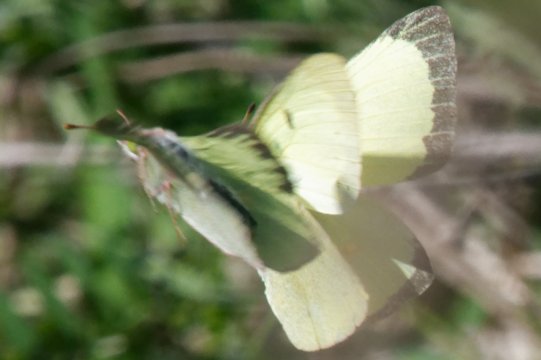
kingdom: Animalia
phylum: Arthropoda
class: Insecta
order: Lepidoptera
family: Pieridae
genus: Colias
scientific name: Colias philodice
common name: Clouded Sulphur
